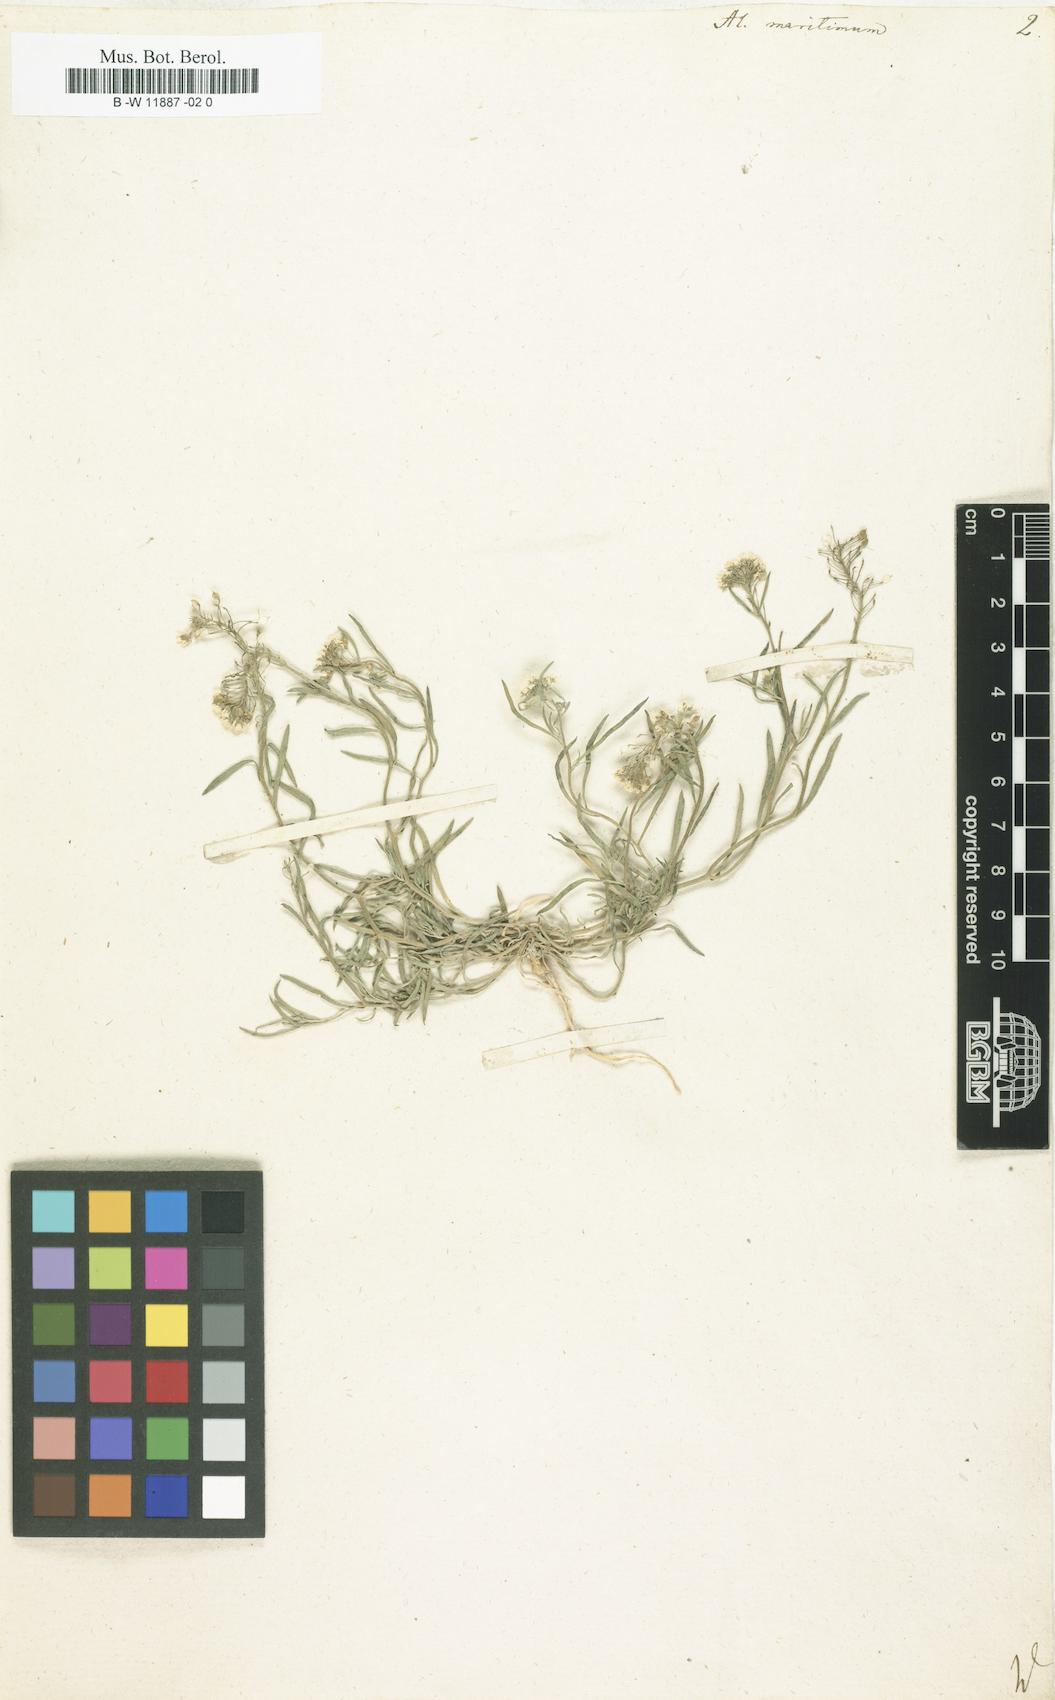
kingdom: Plantae
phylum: Tracheophyta
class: Magnoliopsida
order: Brassicales
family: Brassicaceae
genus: Lobularia
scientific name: Lobularia maritima
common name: Sweet alison
